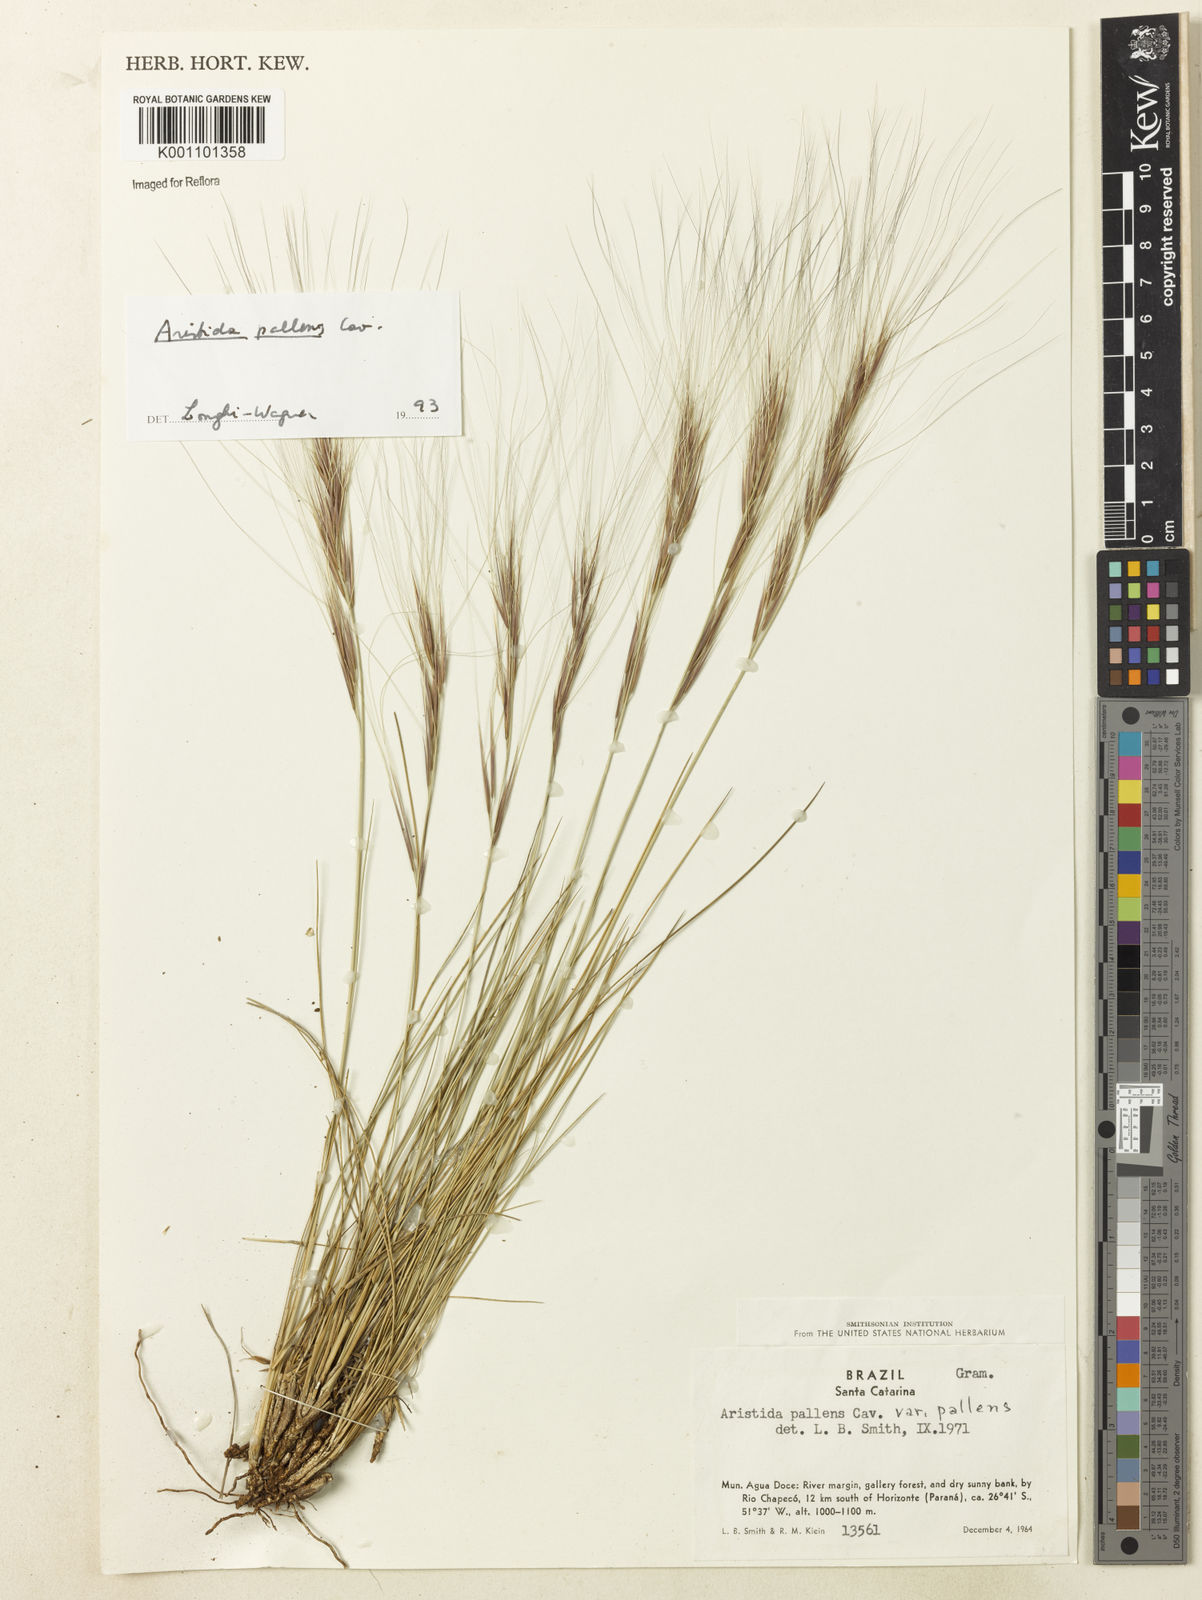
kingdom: Plantae
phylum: Tracheophyta
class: Liliopsida
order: Poales
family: Poaceae
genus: Aristida
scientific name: Aristida pallens
